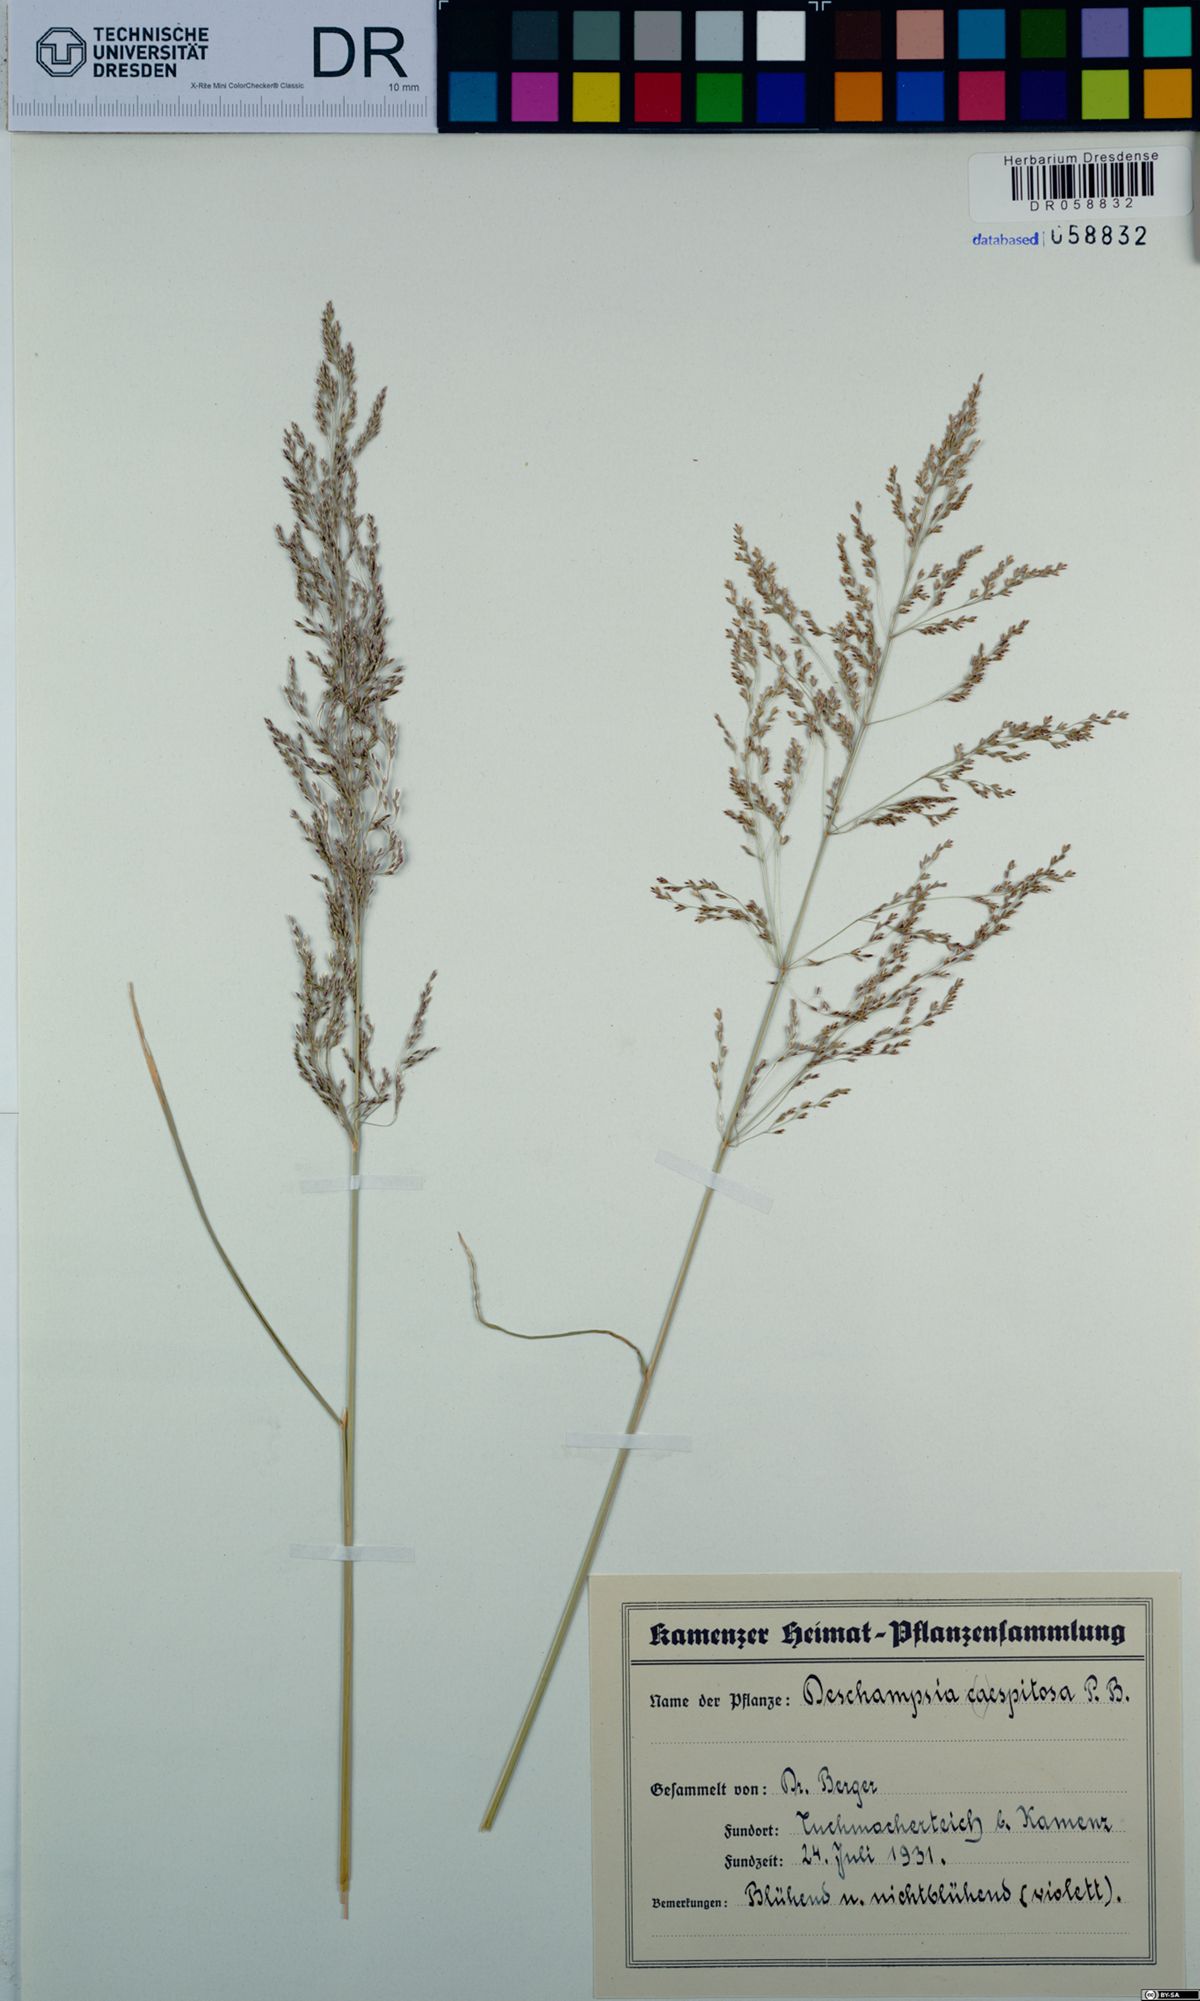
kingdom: Plantae
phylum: Tracheophyta
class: Liliopsida
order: Poales
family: Poaceae
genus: Deschampsia
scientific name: Deschampsia cespitosa
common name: Tufted hair-grass
